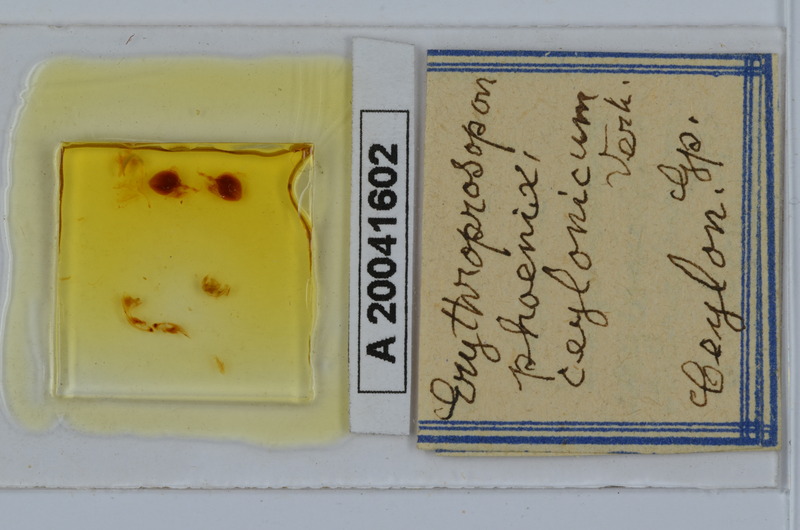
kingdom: Animalia
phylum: Arthropoda
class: Diplopoda
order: Spirobolida
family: Pachybolidae
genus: Erythroprosopon
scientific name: Erythroprosopon phoenix
